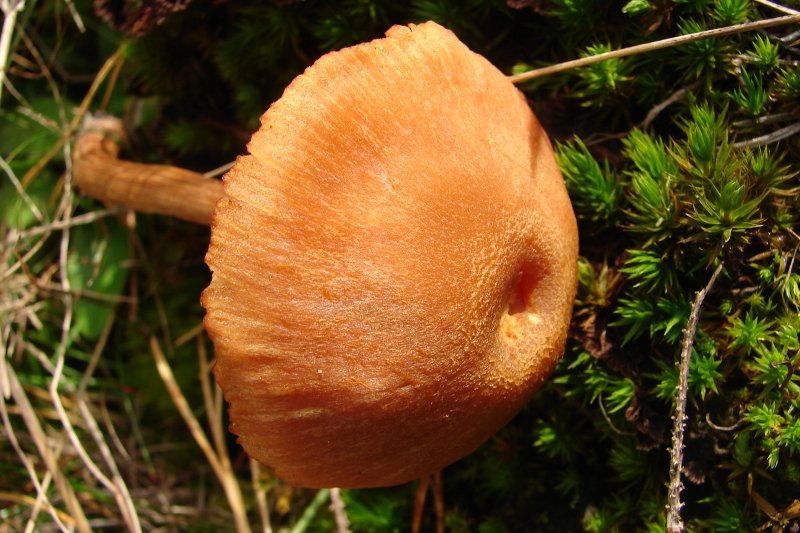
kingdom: Fungi
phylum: Basidiomycota
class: Agaricomycetes
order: Agaricales
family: Hydnangiaceae
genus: Laccaria
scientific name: Laccaria proxima
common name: stor ametysthat
